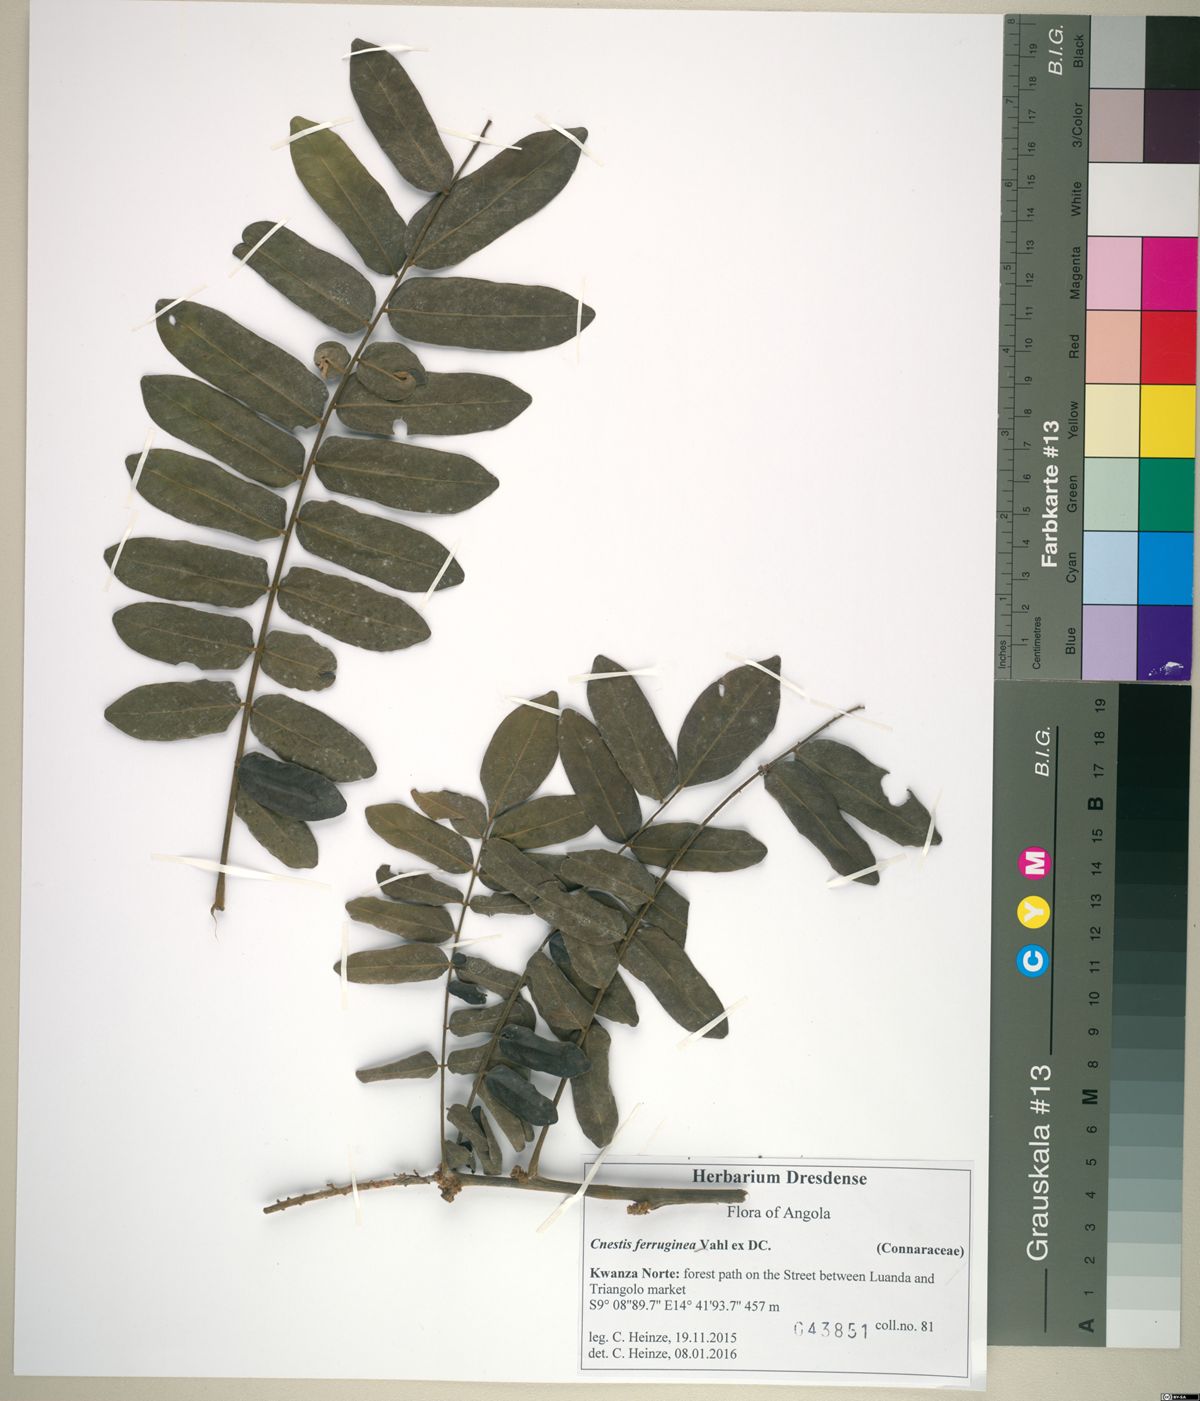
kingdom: Plantae
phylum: Tracheophyta
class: Magnoliopsida
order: Oxalidales
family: Connaraceae
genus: Cnestis
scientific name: Cnestis ferruginea
